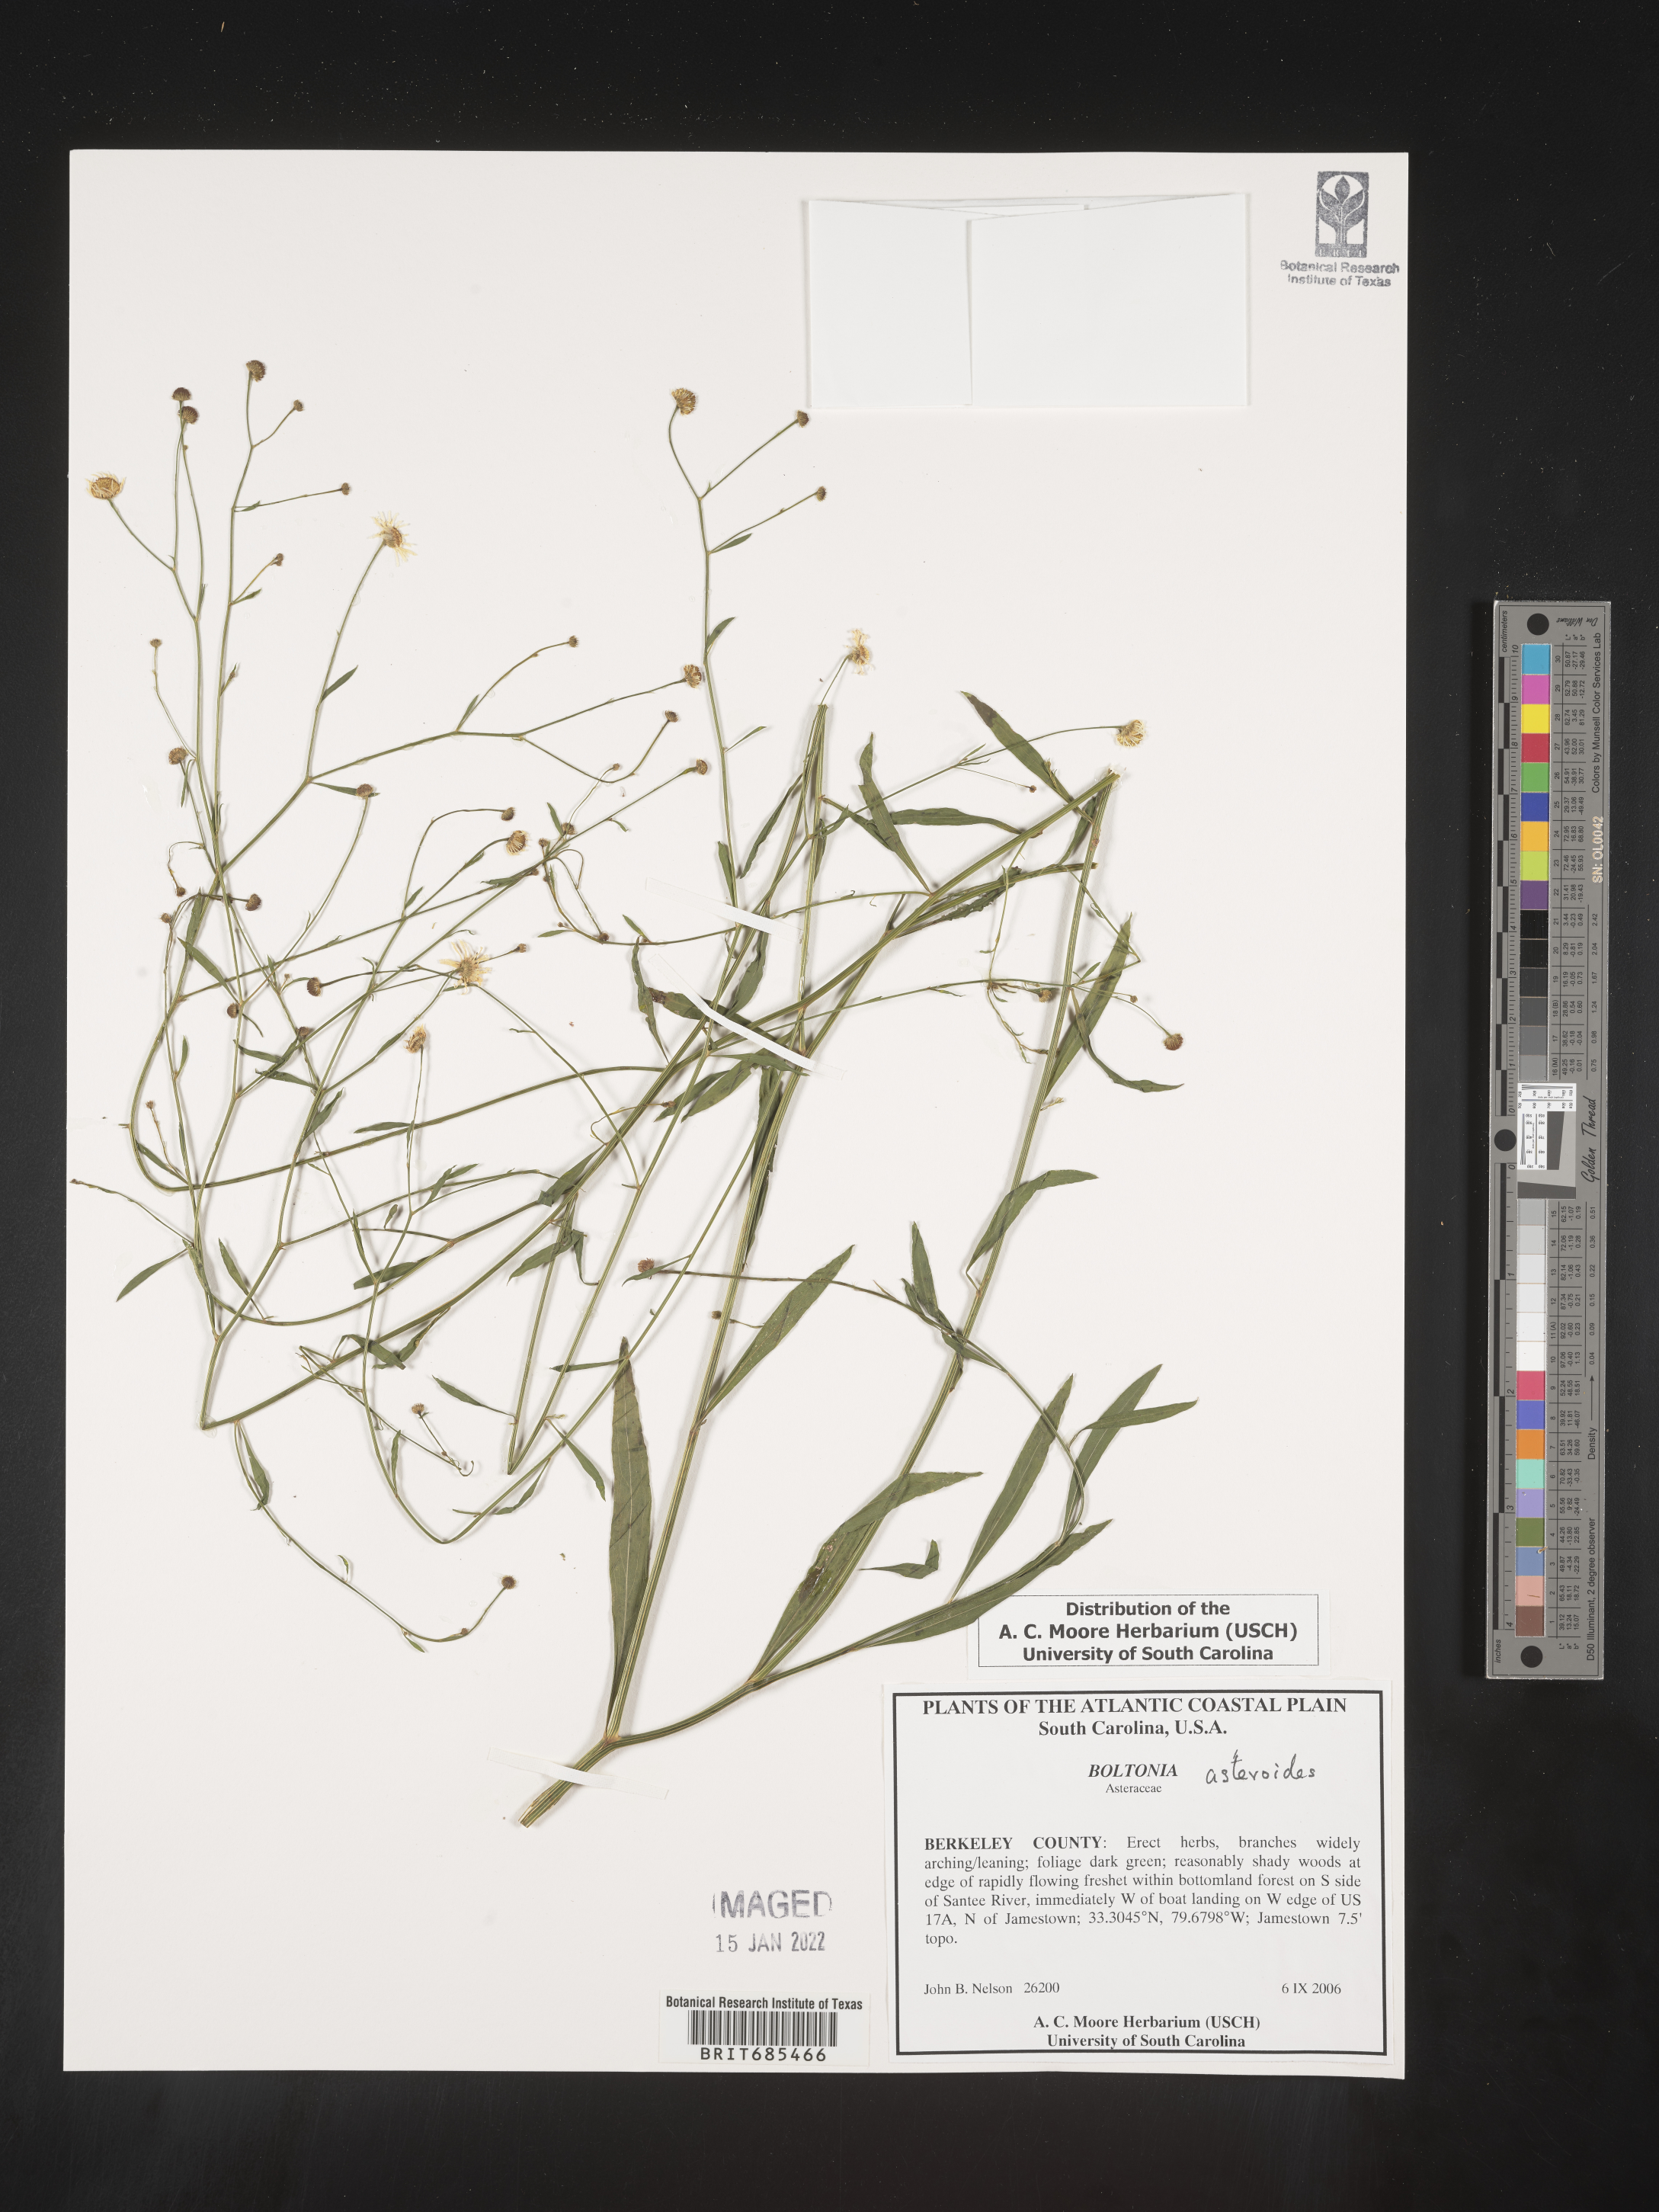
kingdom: Plantae
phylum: Tracheophyta
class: Magnoliopsida
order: Asterales
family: Asteraceae
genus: Boltonia
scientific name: Boltonia asteroides
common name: False chamomile
